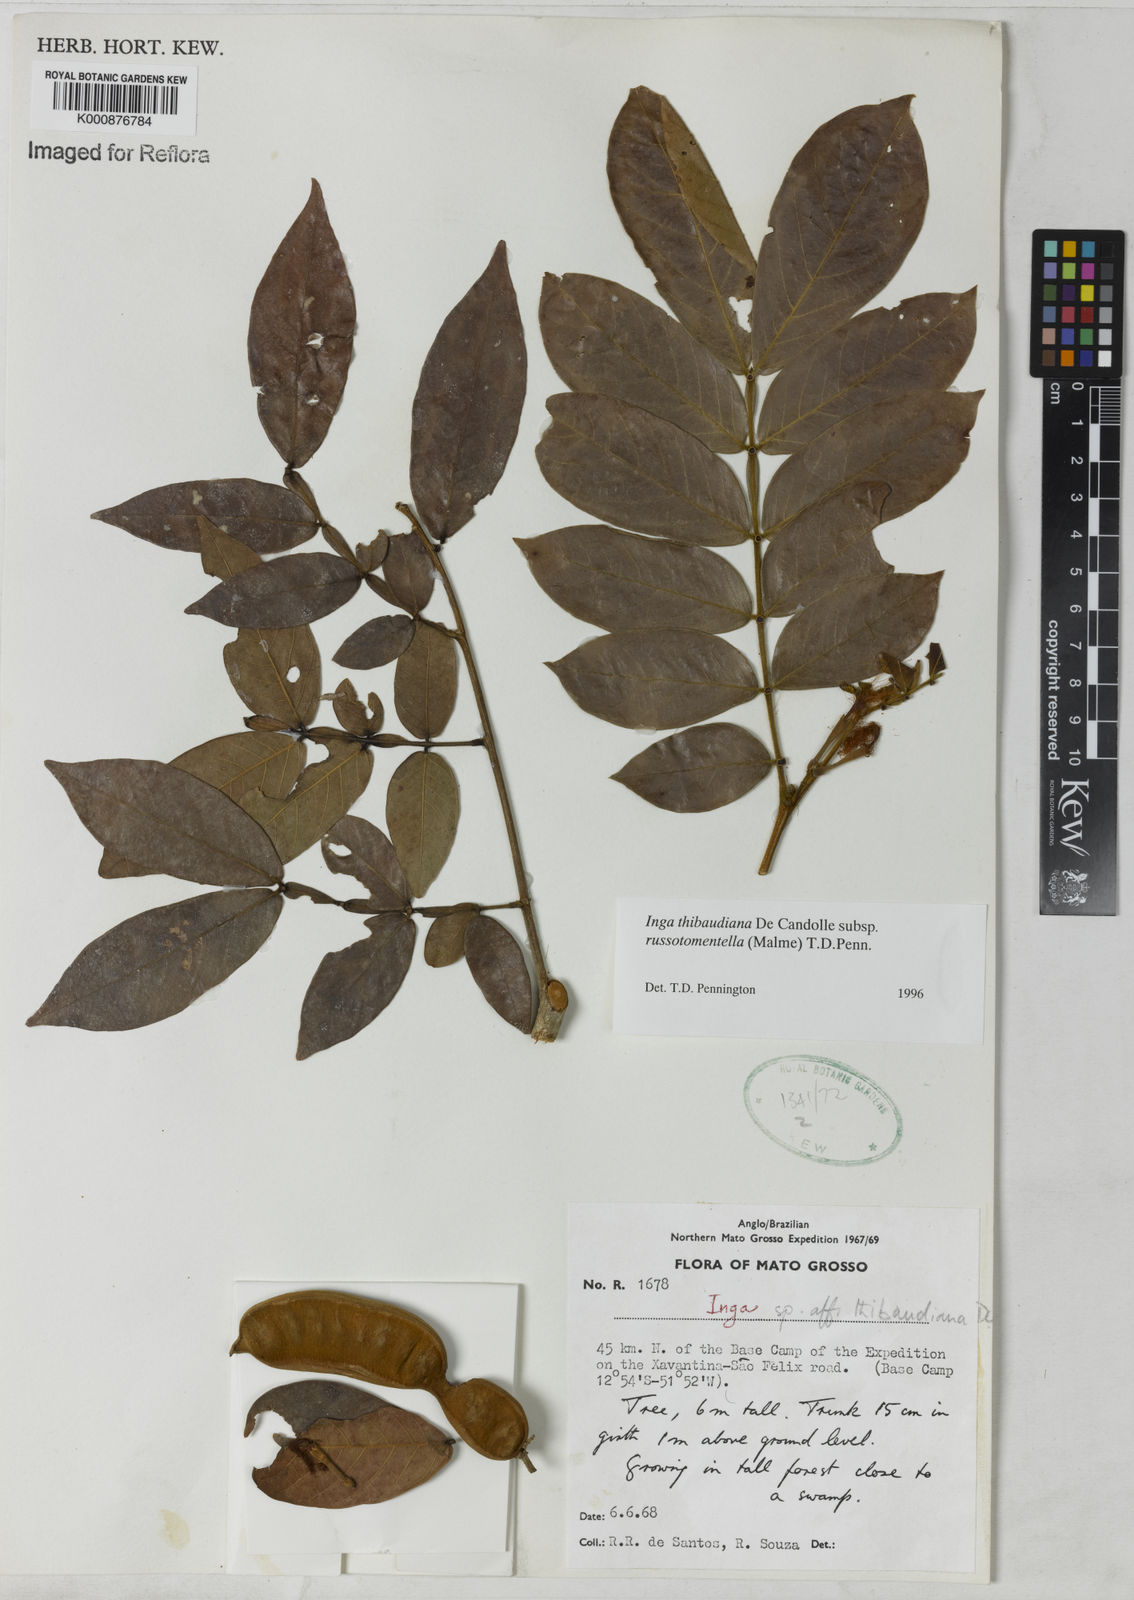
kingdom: Plantae
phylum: Tracheophyta
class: Magnoliopsida
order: Fabales
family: Fabaceae
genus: Inga
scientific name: Inga thibaudiana
